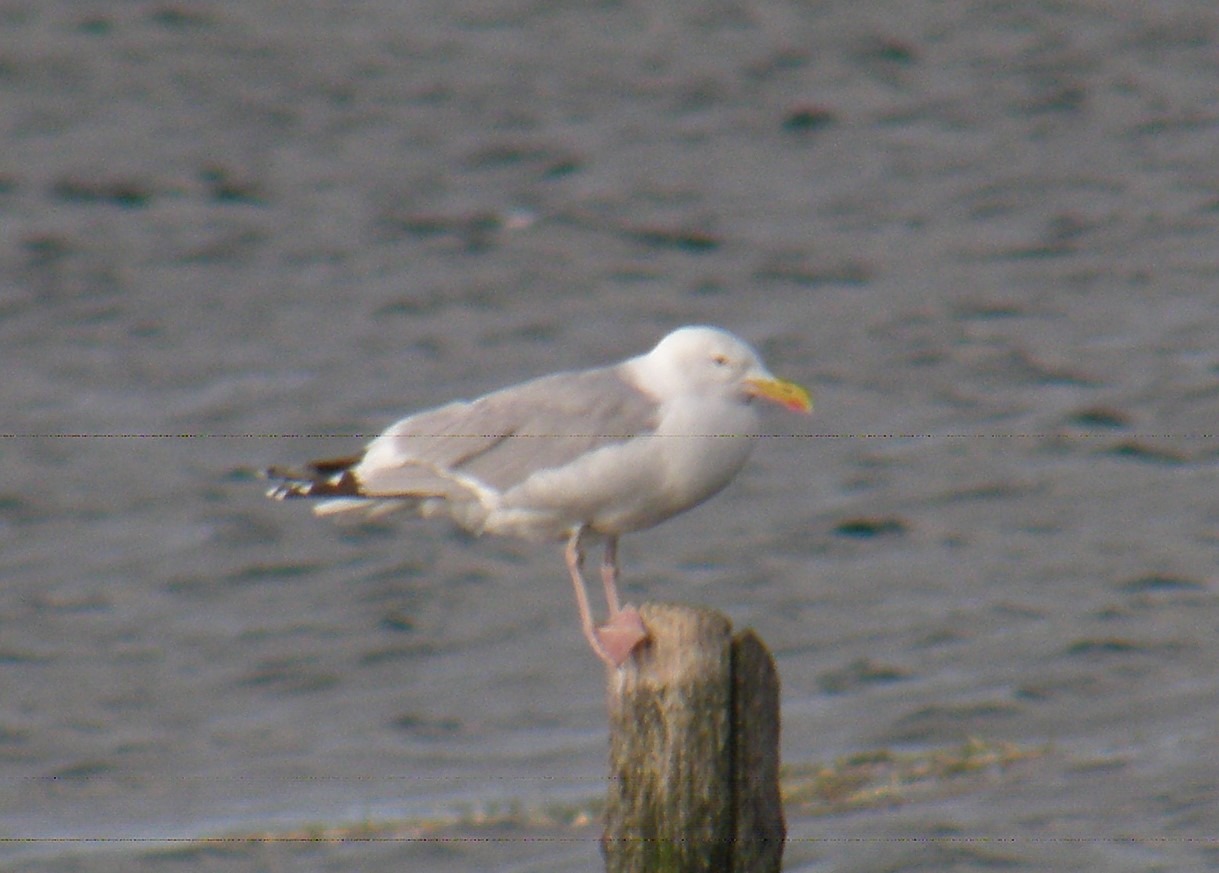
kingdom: Animalia
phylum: Chordata
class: Aves
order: Charadriiformes
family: Laridae
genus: Larus
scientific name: Larus argentatus
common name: Sølvmåge
